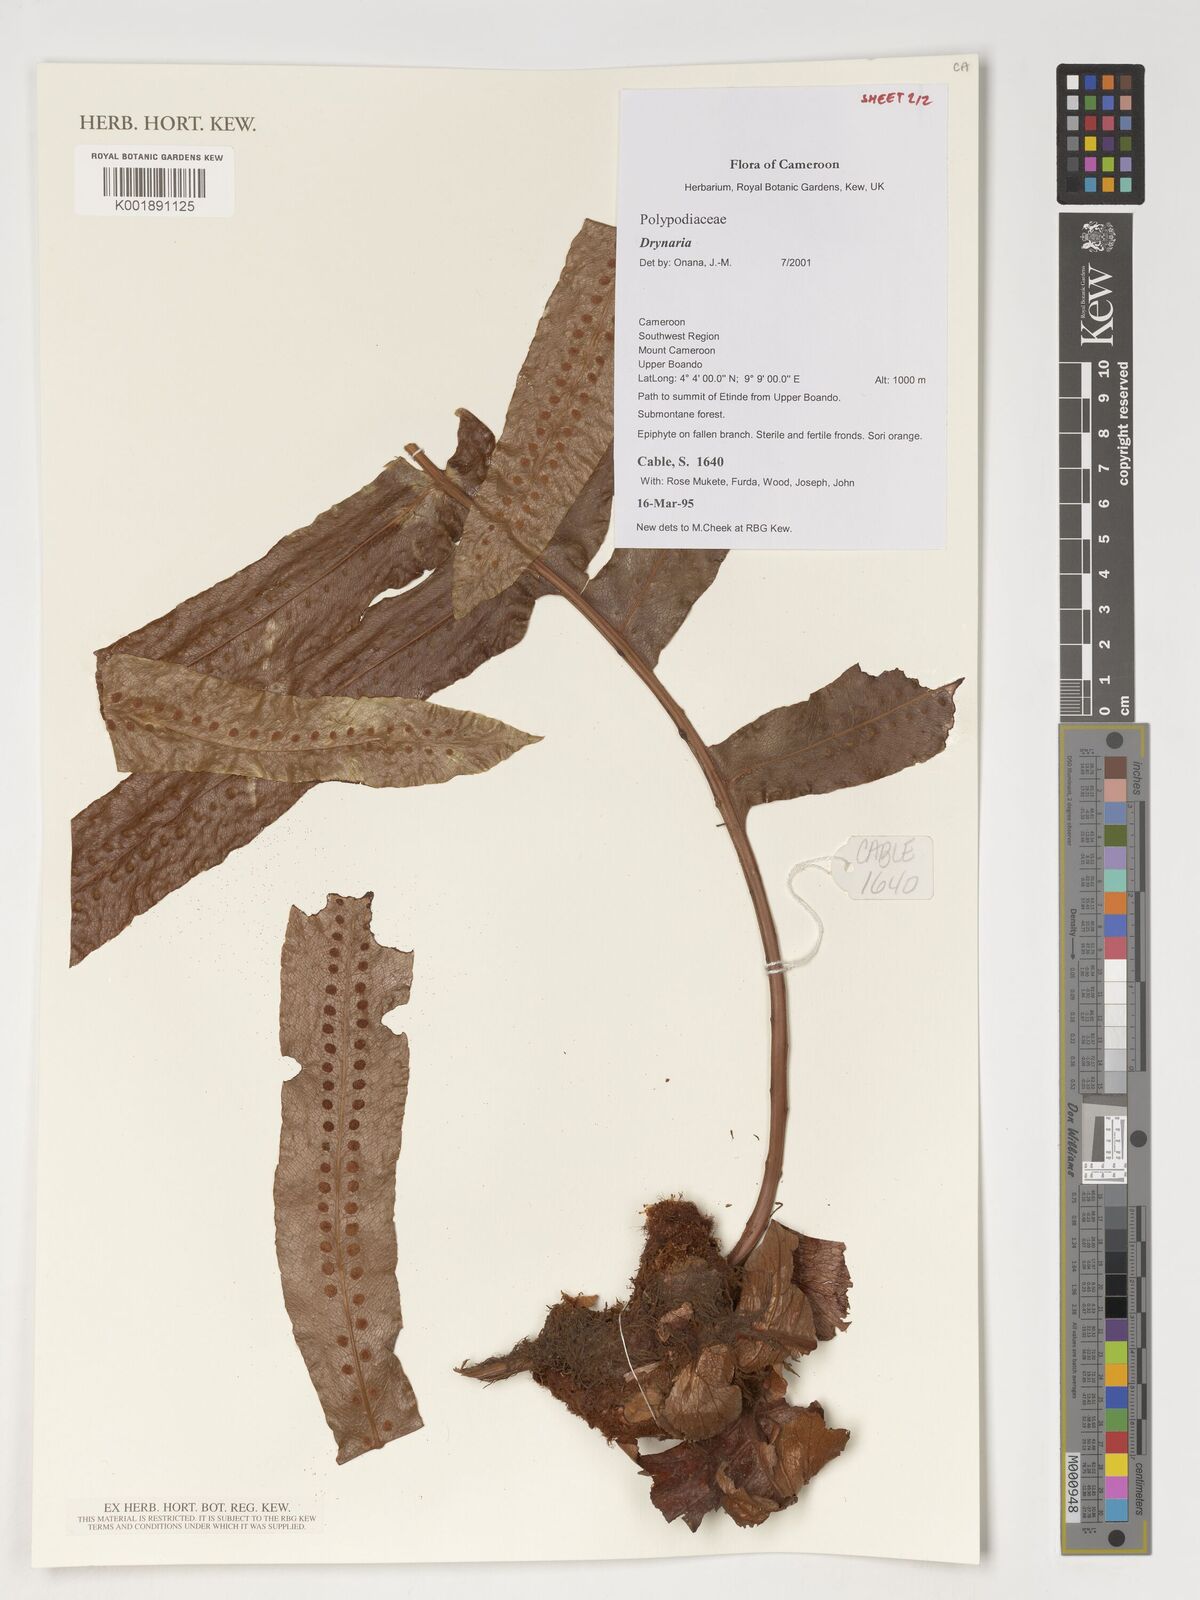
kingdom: Plantae
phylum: Tracheophyta
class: Polypodiopsida
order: Polypodiales
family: Polypodiaceae
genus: Drynaria
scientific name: Drynaria
